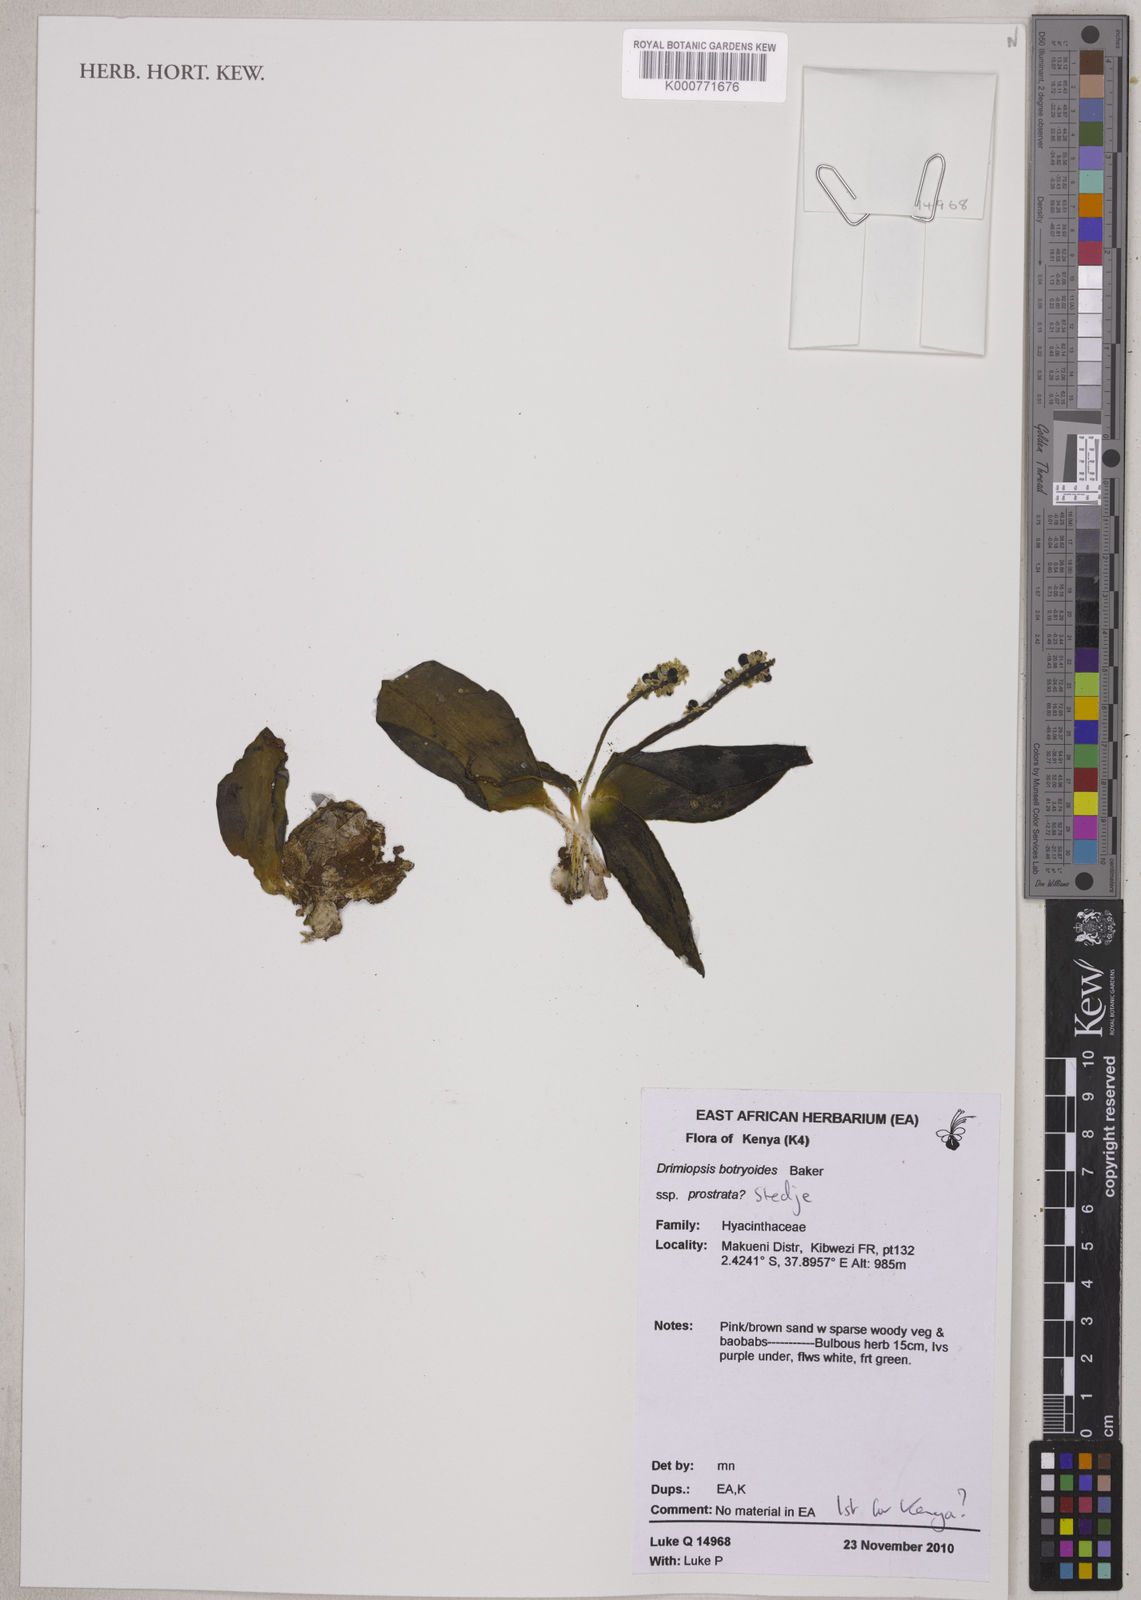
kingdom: Plantae
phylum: Tracheophyta
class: Liliopsida
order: Asparagales
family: Asparagaceae
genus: Drimiopsis
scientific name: Drimiopsis botryoides
